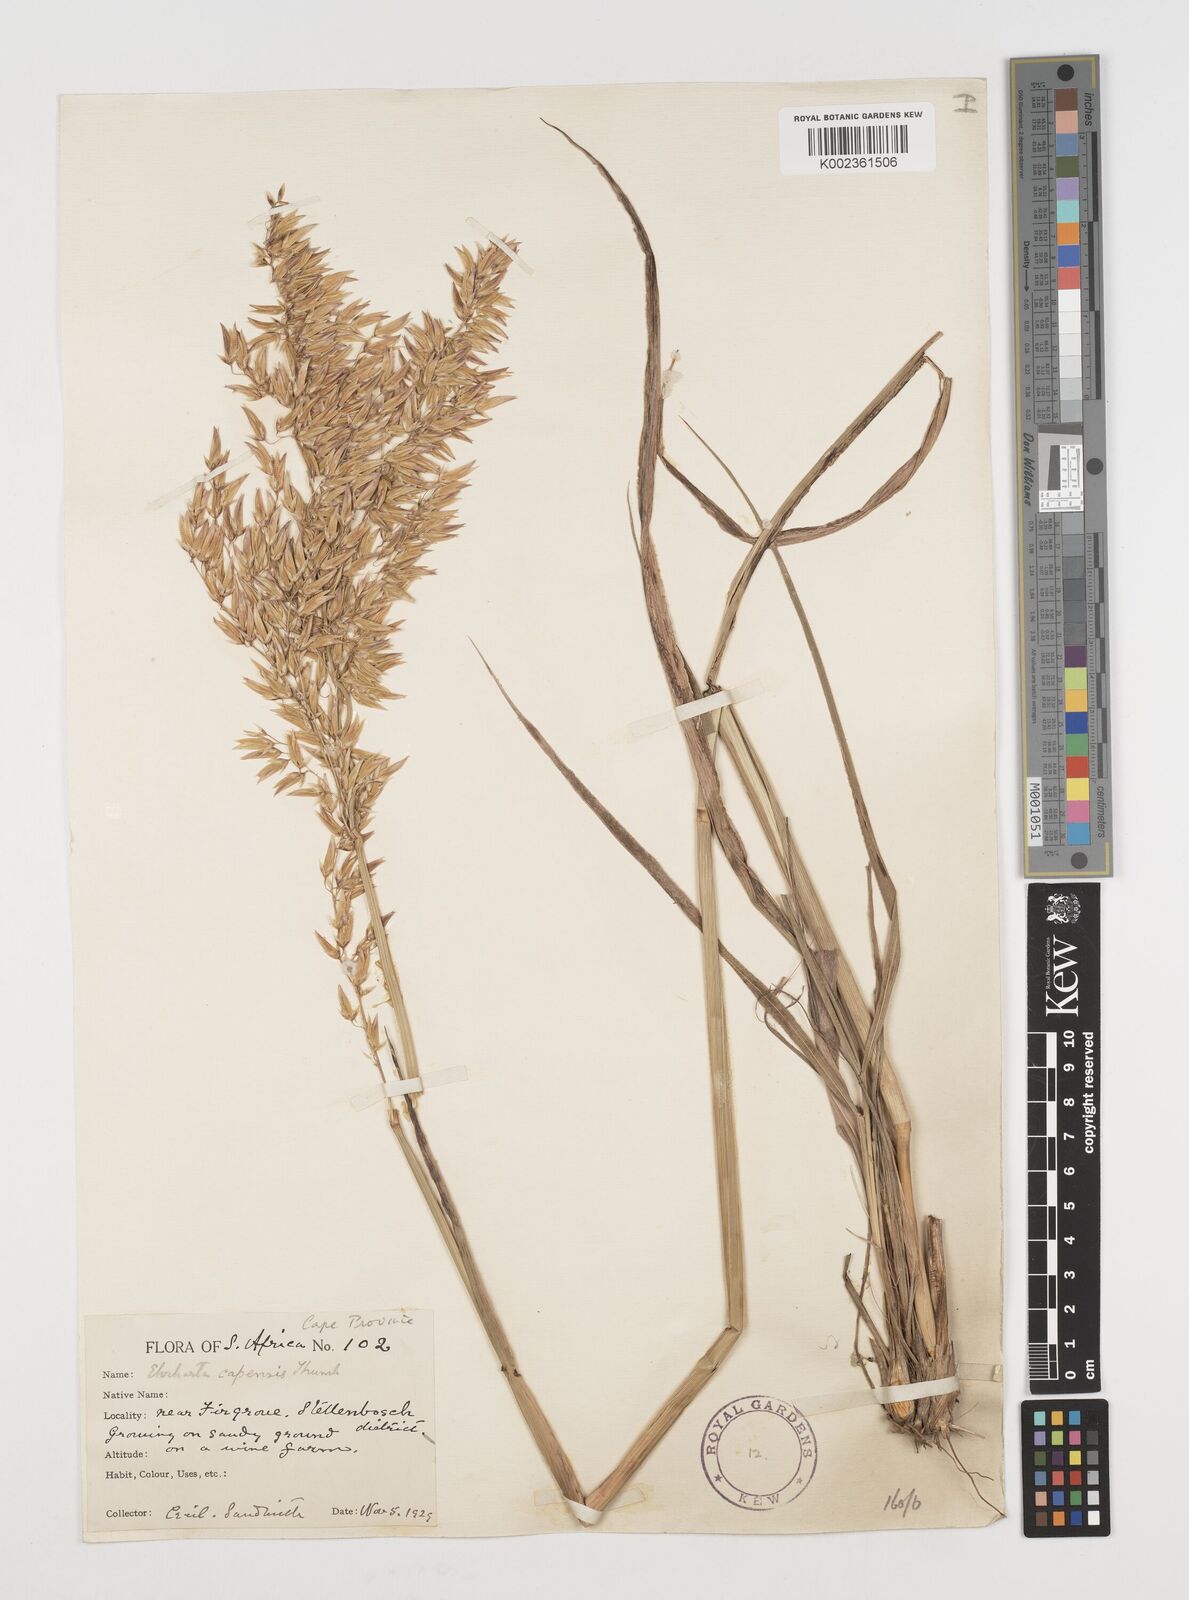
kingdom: Plantae
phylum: Tracheophyta
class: Liliopsida
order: Poales
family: Poaceae
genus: Ehrharta
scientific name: Ehrharta capensis
